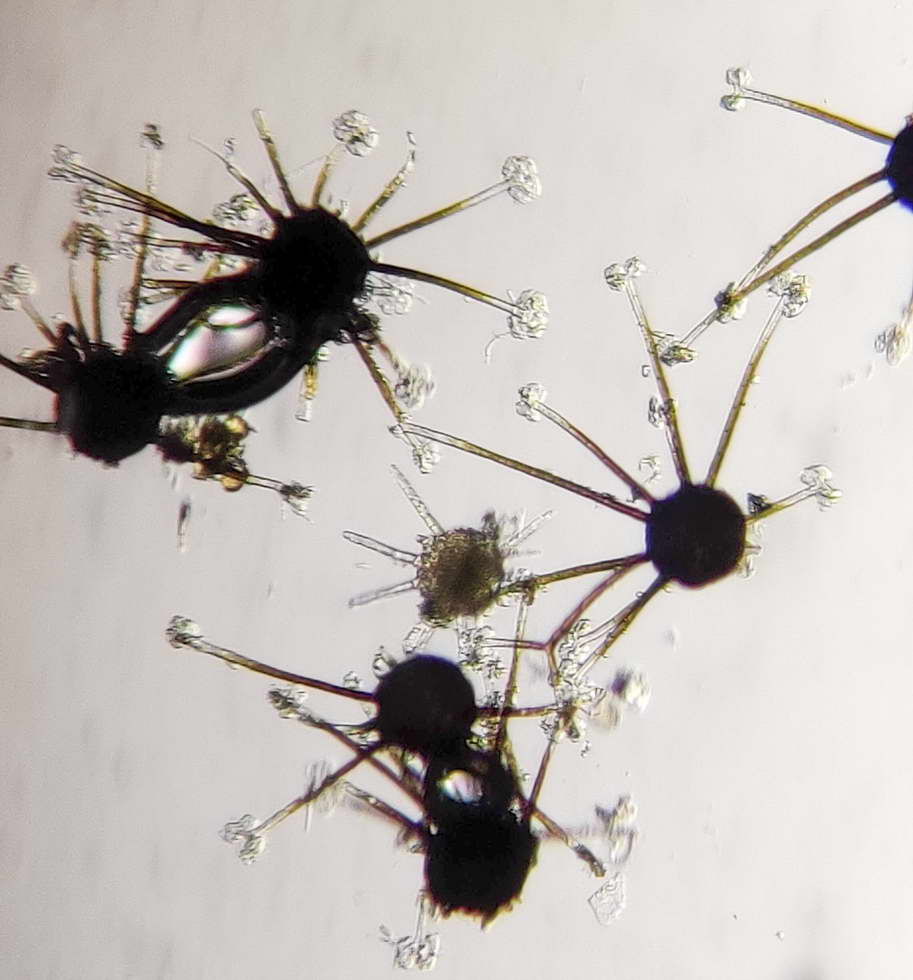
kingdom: Fungi
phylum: Ascomycota
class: Leotiomycetes
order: Helotiales
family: Erysiphaceae
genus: Podosphaera
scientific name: Podosphaera amelanchieris
